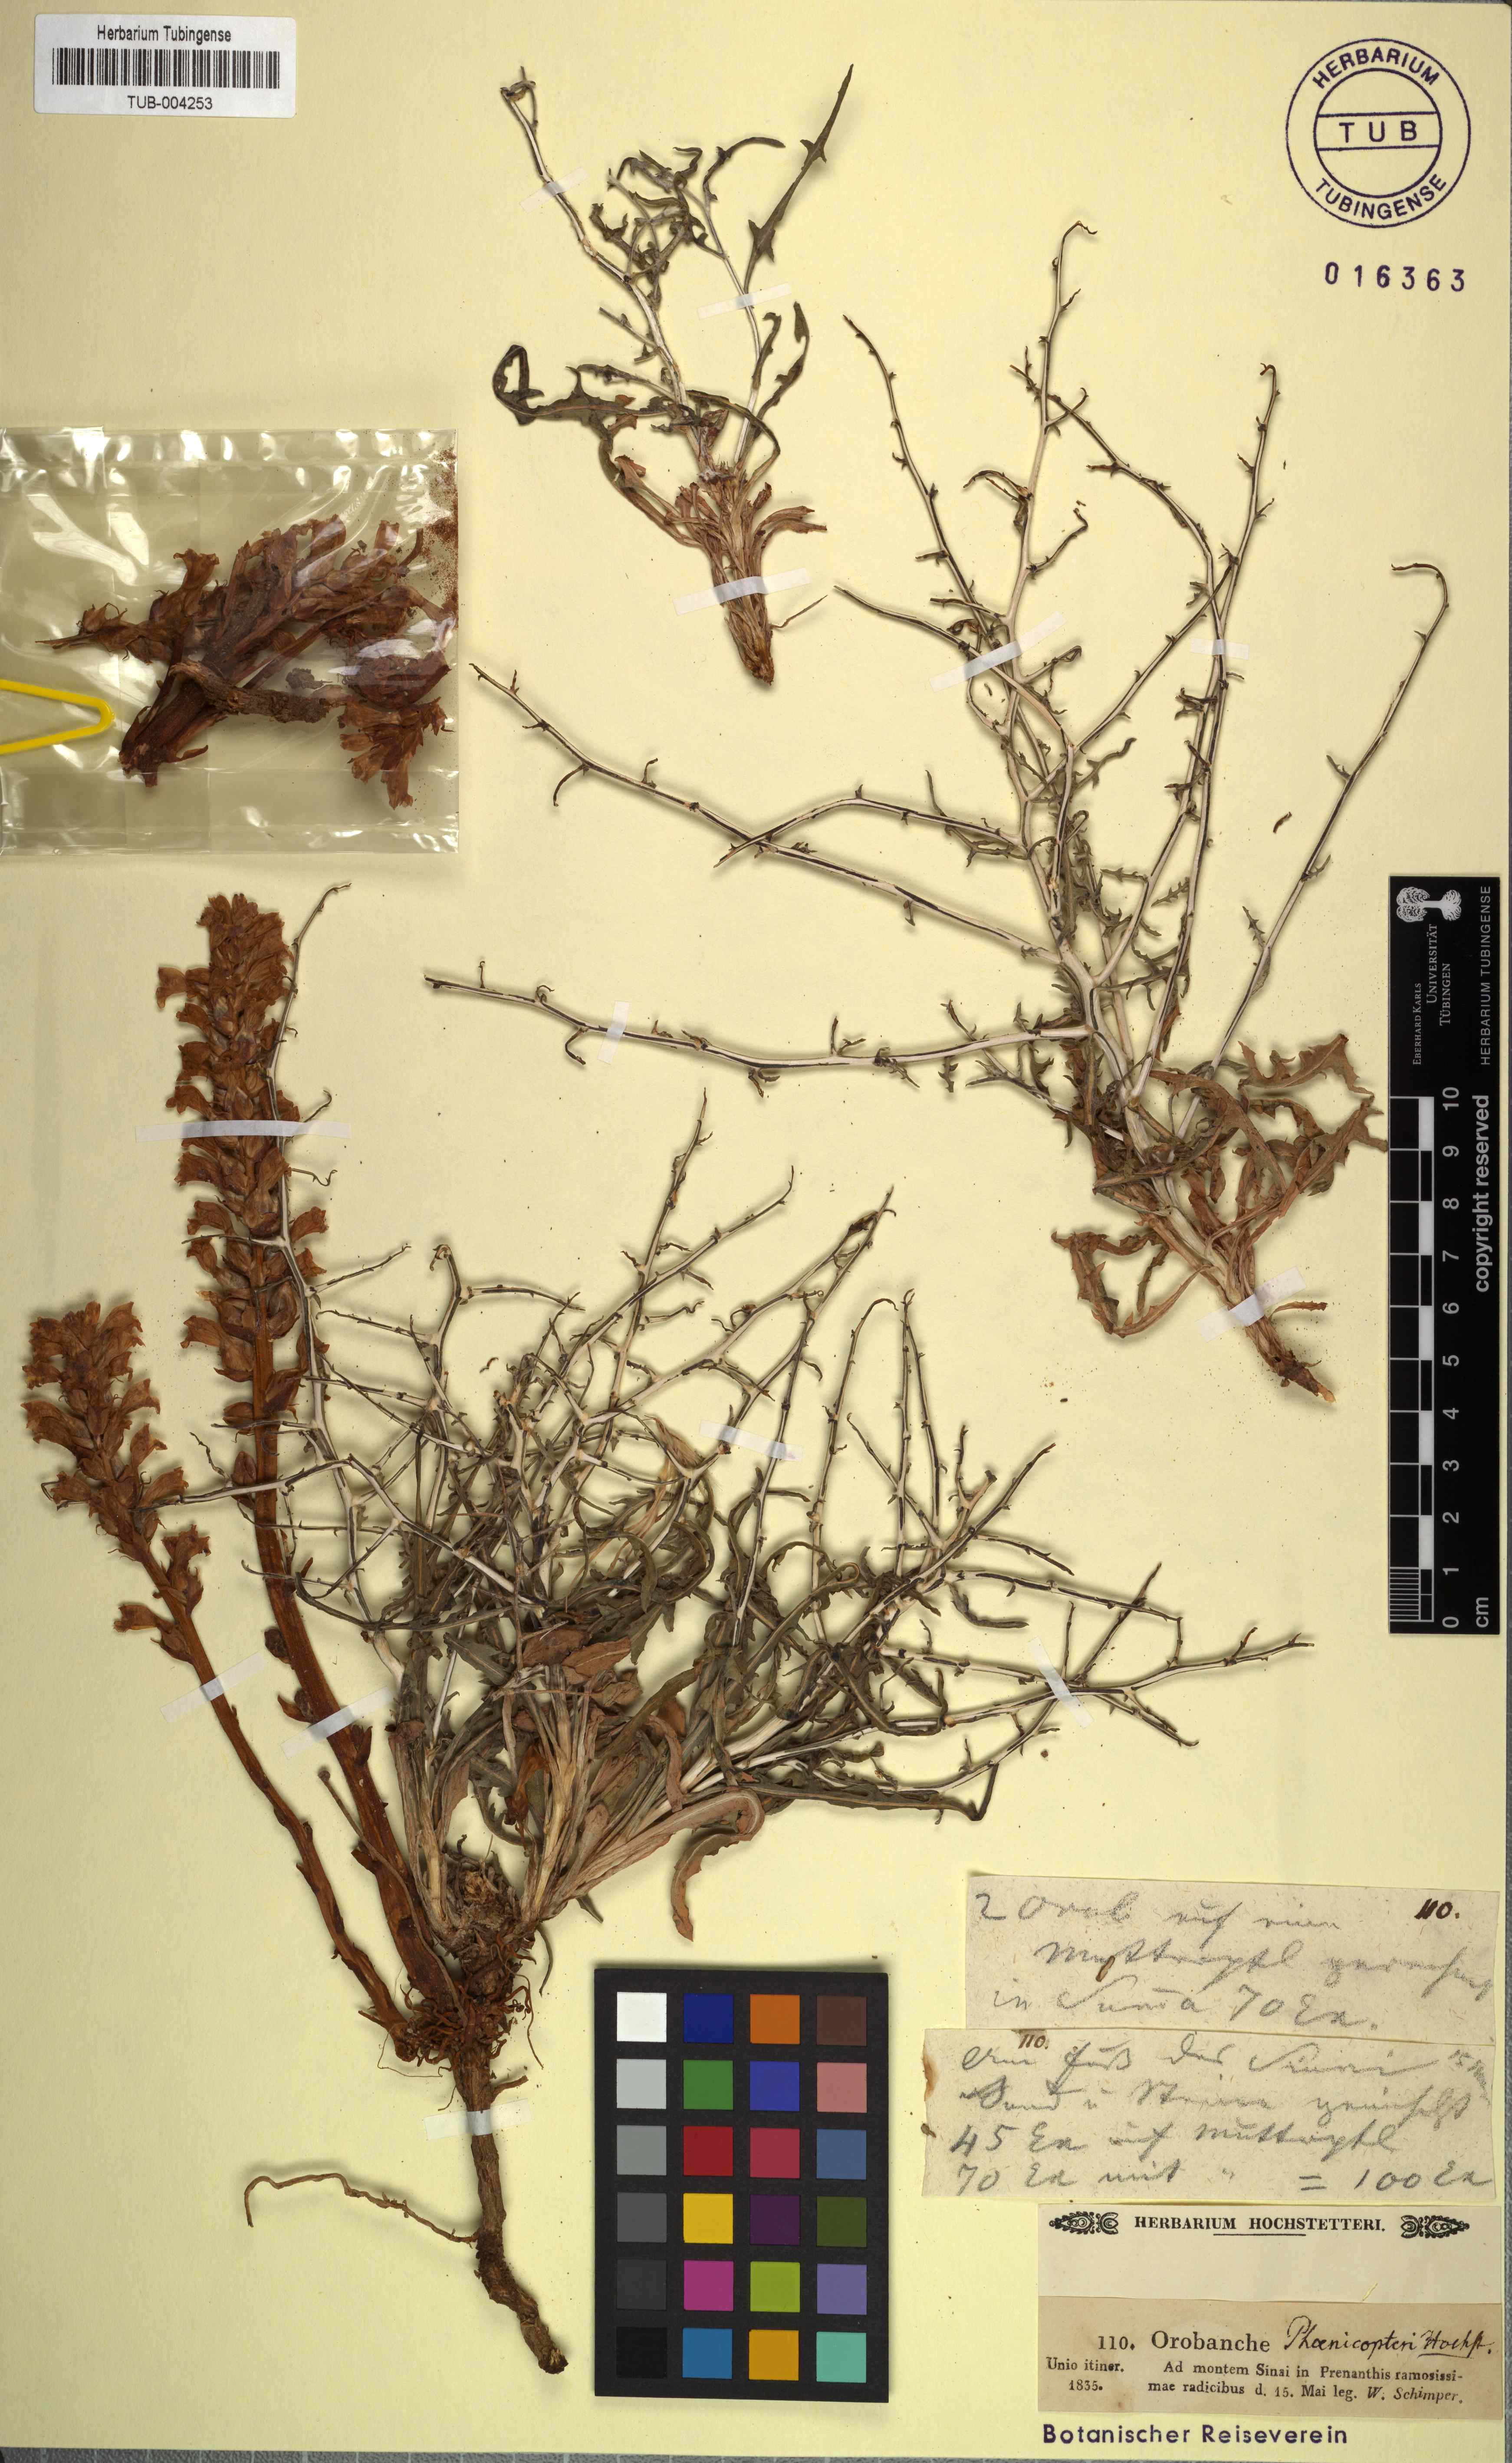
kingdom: Plantae
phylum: Tracheophyta
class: Magnoliopsida
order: Lamiales
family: Orobanchaceae
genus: Orobanche
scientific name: Orobanche
